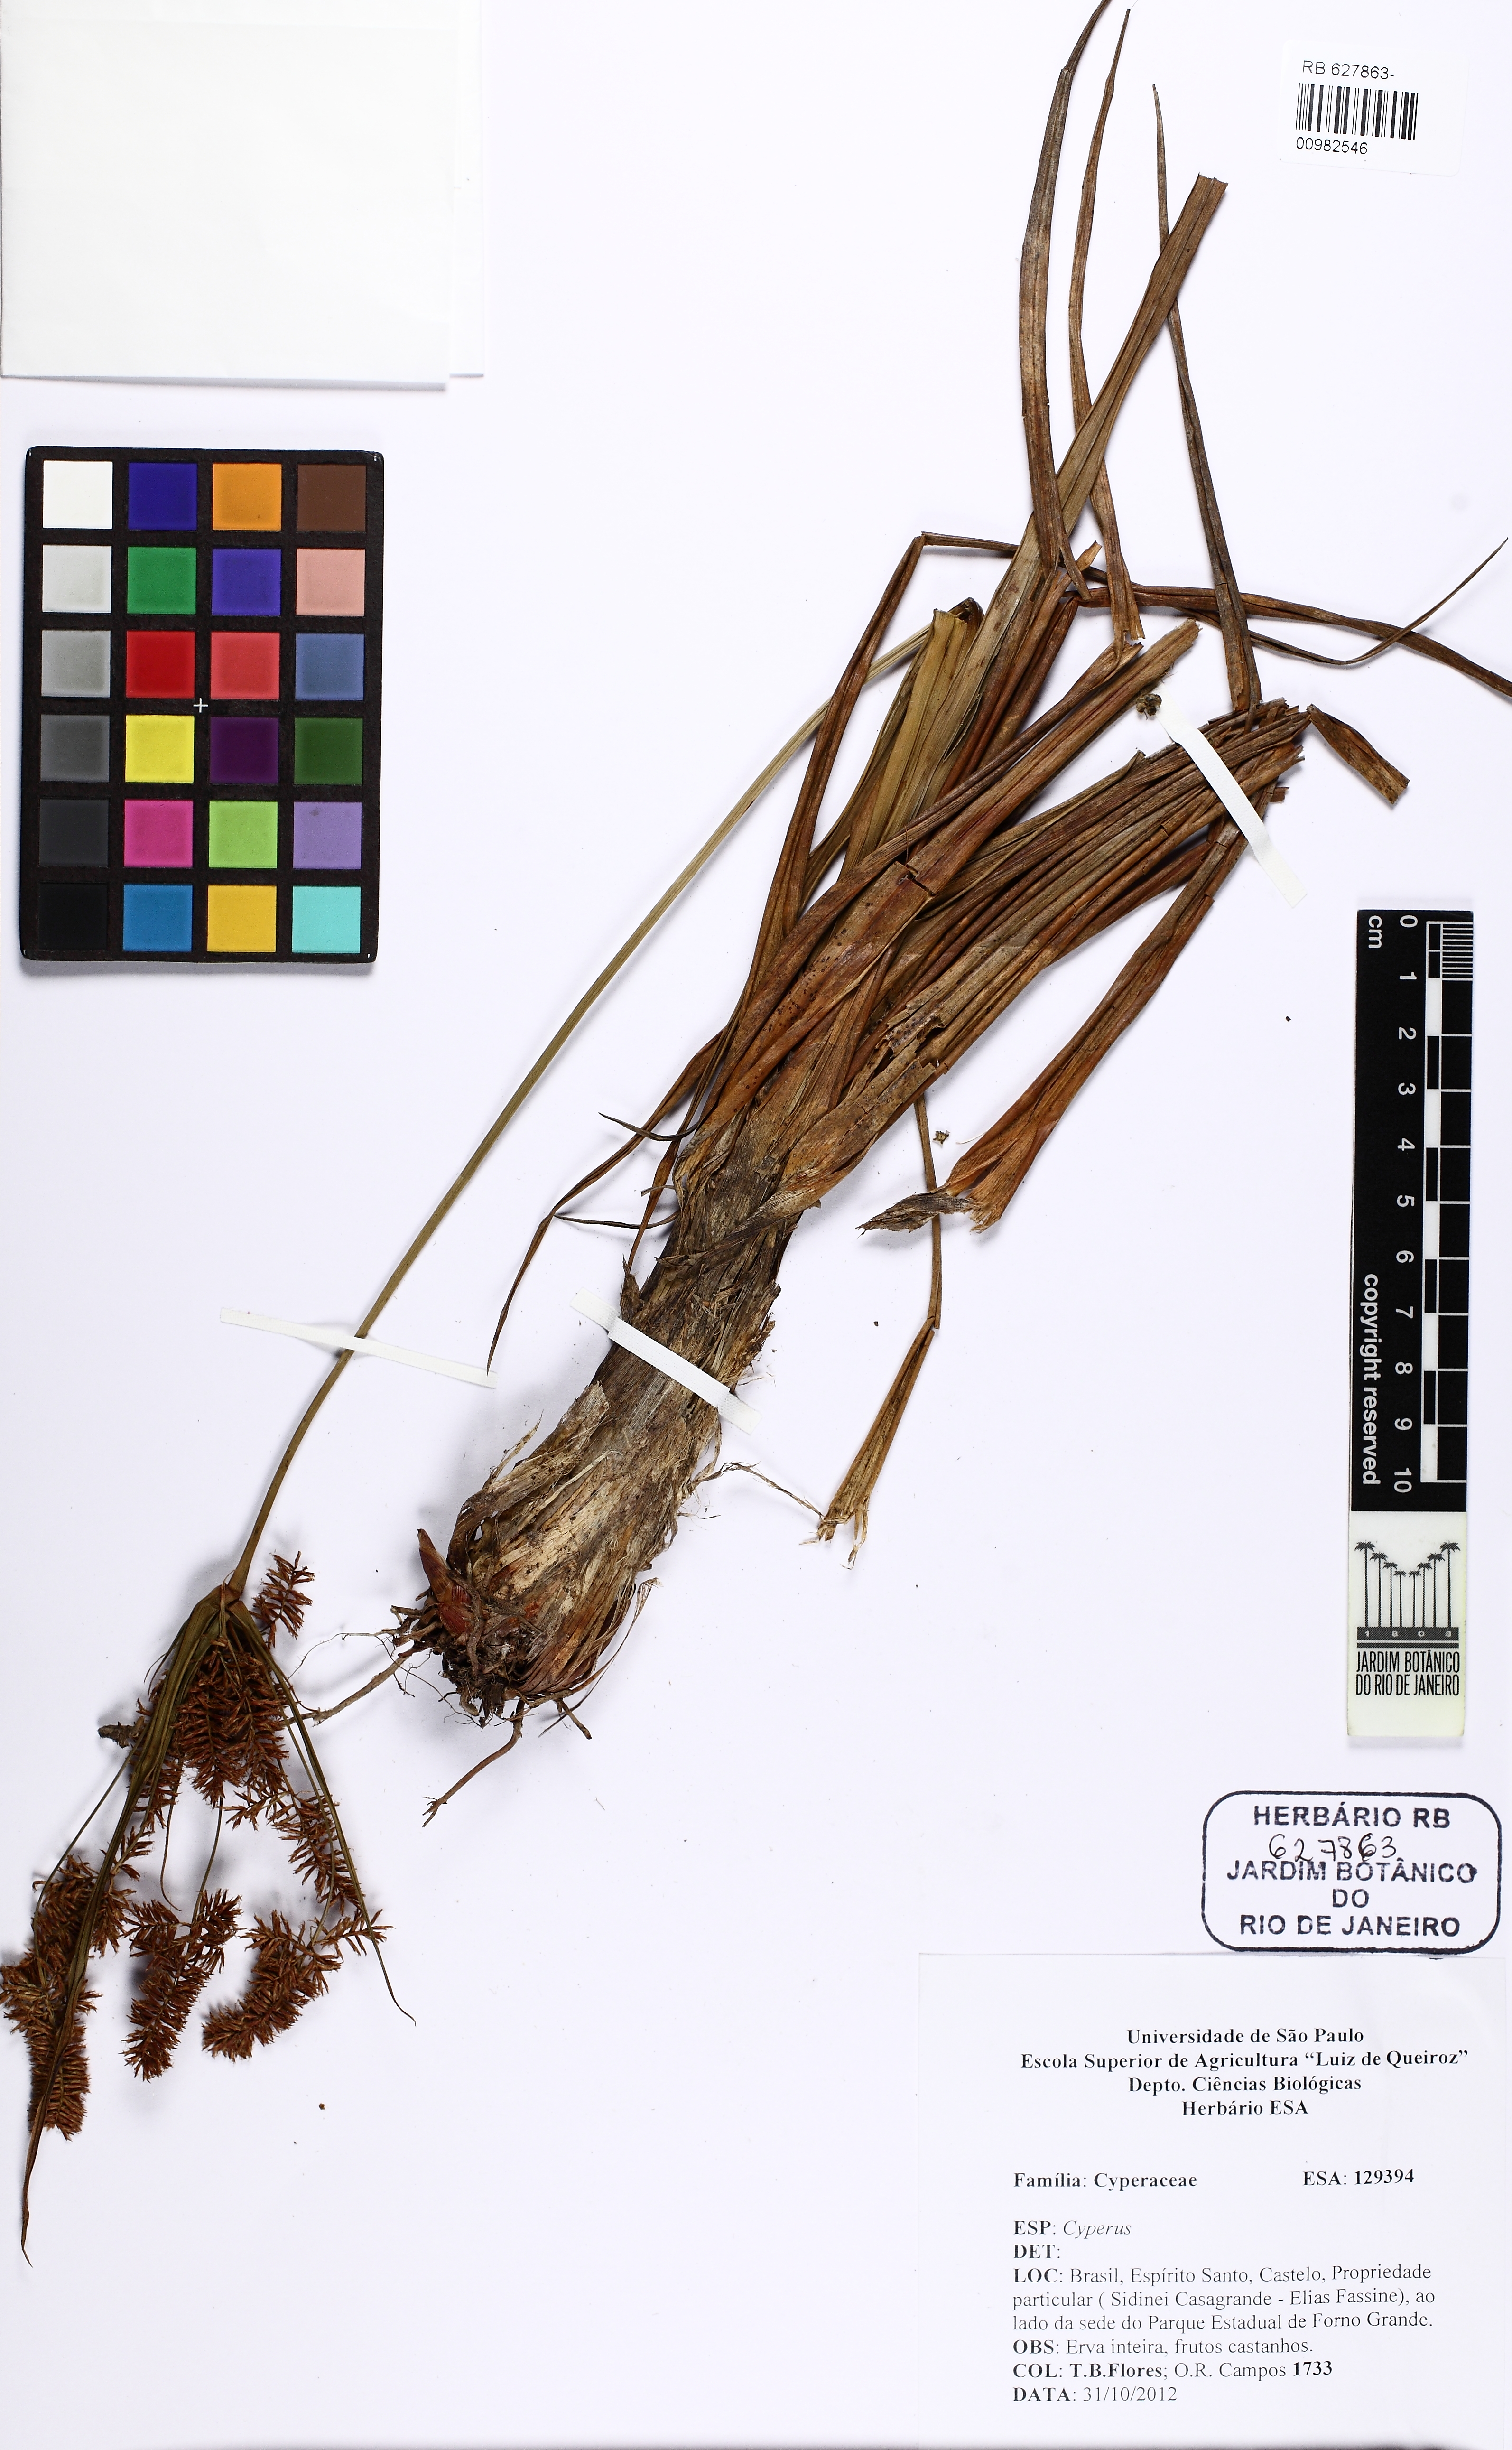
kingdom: Plantae
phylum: Tracheophyta
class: Liliopsida
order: Poales
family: Cyperaceae
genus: Cyperus
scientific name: Cyperus coriifolius
